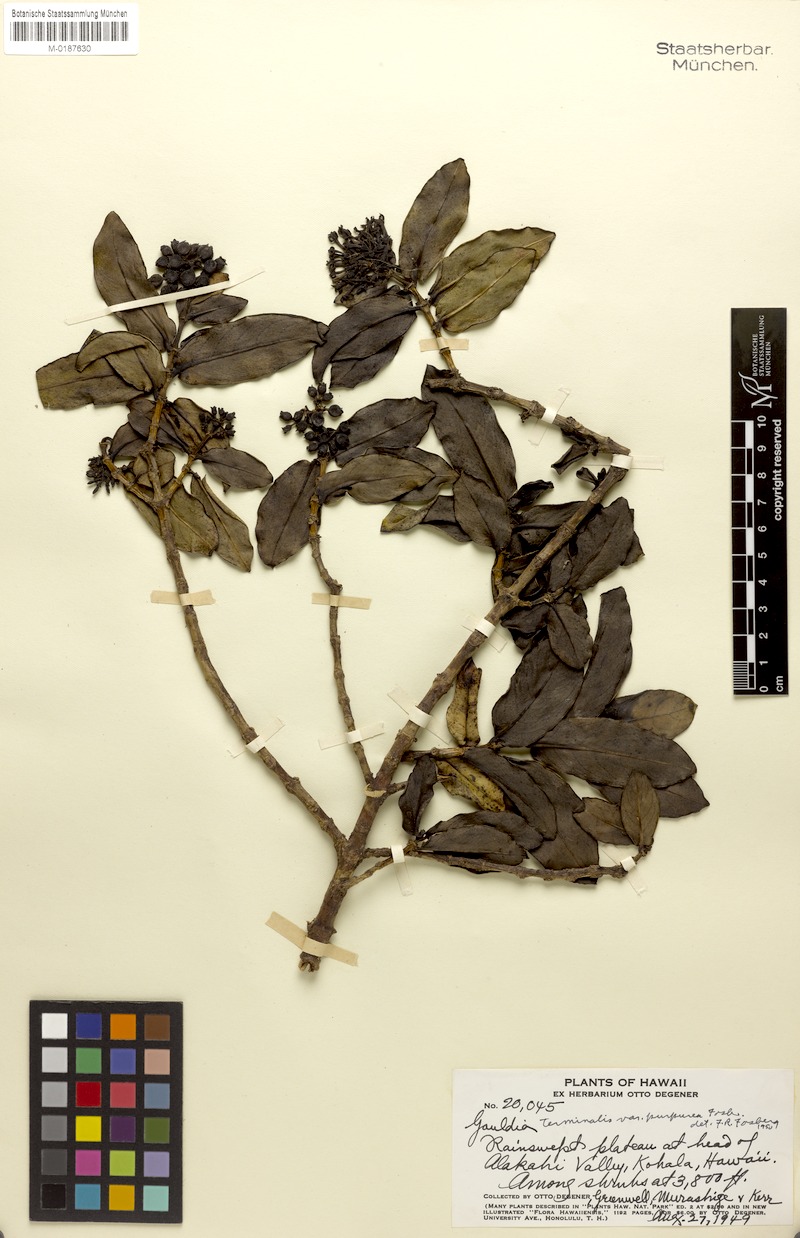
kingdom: Plantae
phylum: Tracheophyta
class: Magnoliopsida
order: Gentianales
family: Rubiaceae
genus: Kadua
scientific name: Kadua affinis
